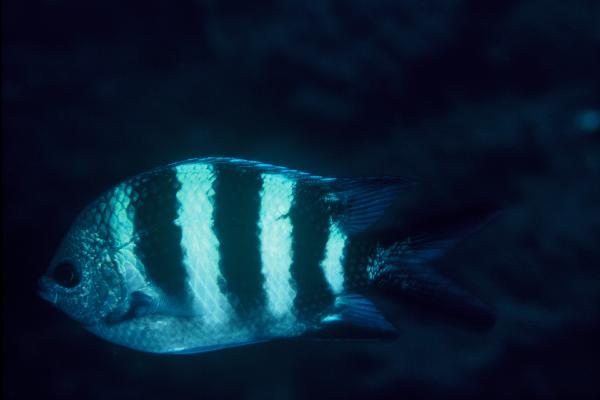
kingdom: Animalia
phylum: Chordata
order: Perciformes
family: Pomacentridae
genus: Abudefduf
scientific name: Abudefduf natalensis
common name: Natal sergeant
